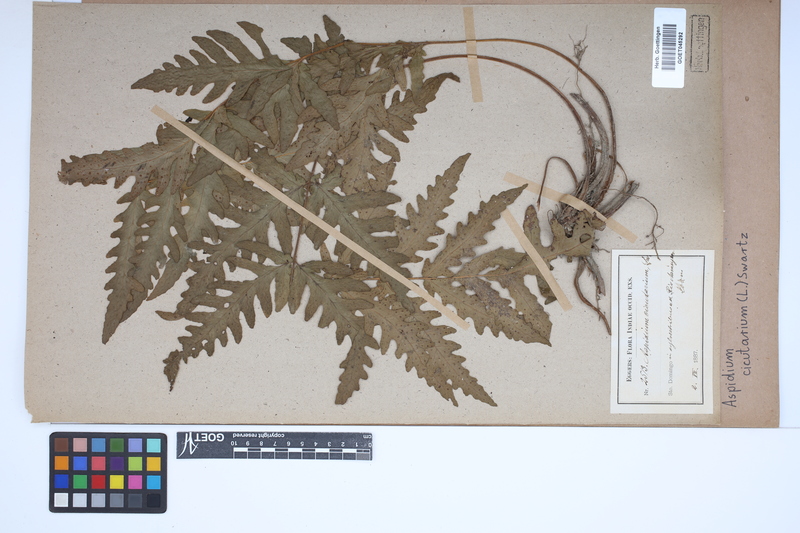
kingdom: Plantae
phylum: Tracheophyta
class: Polypodiopsida
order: Polypodiales
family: Tectariaceae
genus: Tectaria
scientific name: Tectaria cicutaria
